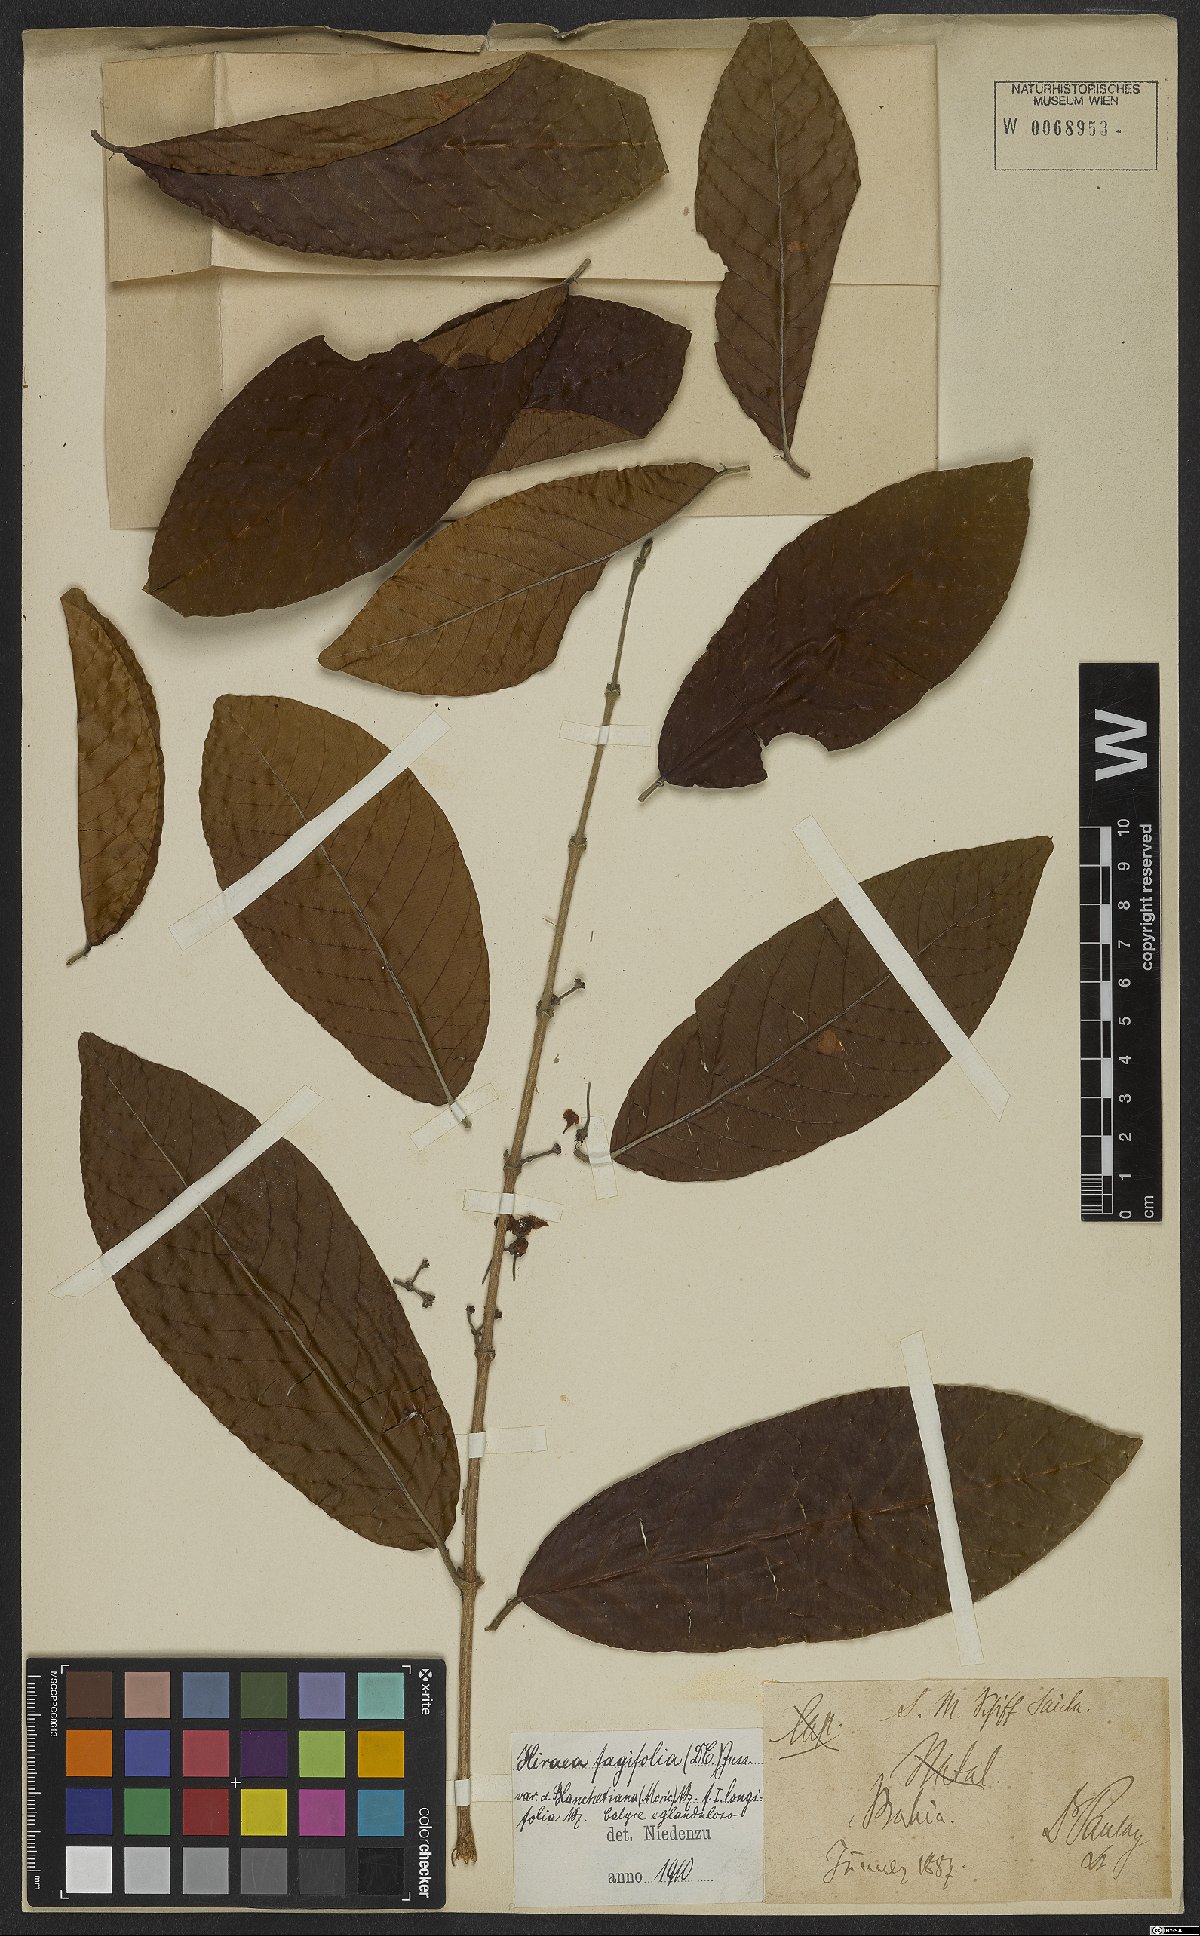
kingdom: Plantae
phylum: Tracheophyta
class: Magnoliopsida
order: Malpighiales
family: Malpighiaceae
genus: Hiraea
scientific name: Hiraea fagifolia
